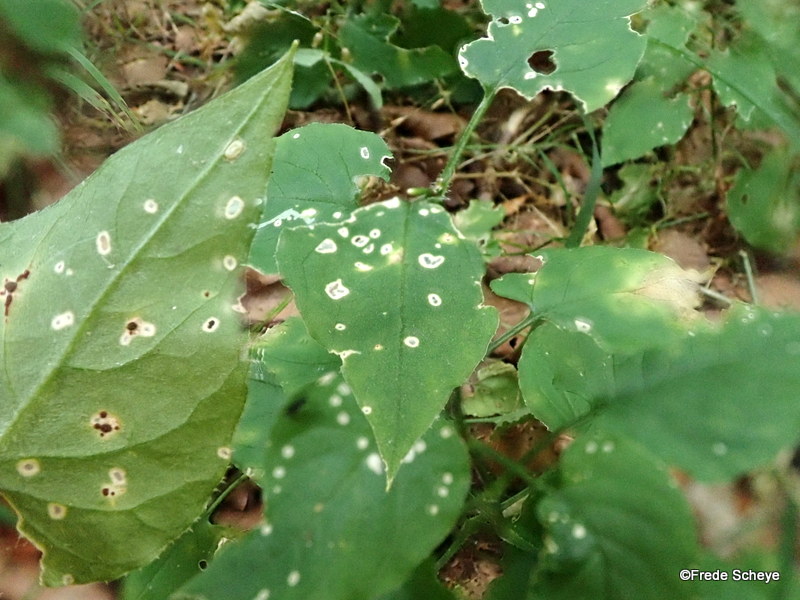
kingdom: Fungi
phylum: Basidiomycota
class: Pucciniomycetes
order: Pucciniales
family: Pucciniaceae
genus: Puccinia
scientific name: Puccinia arenariae
